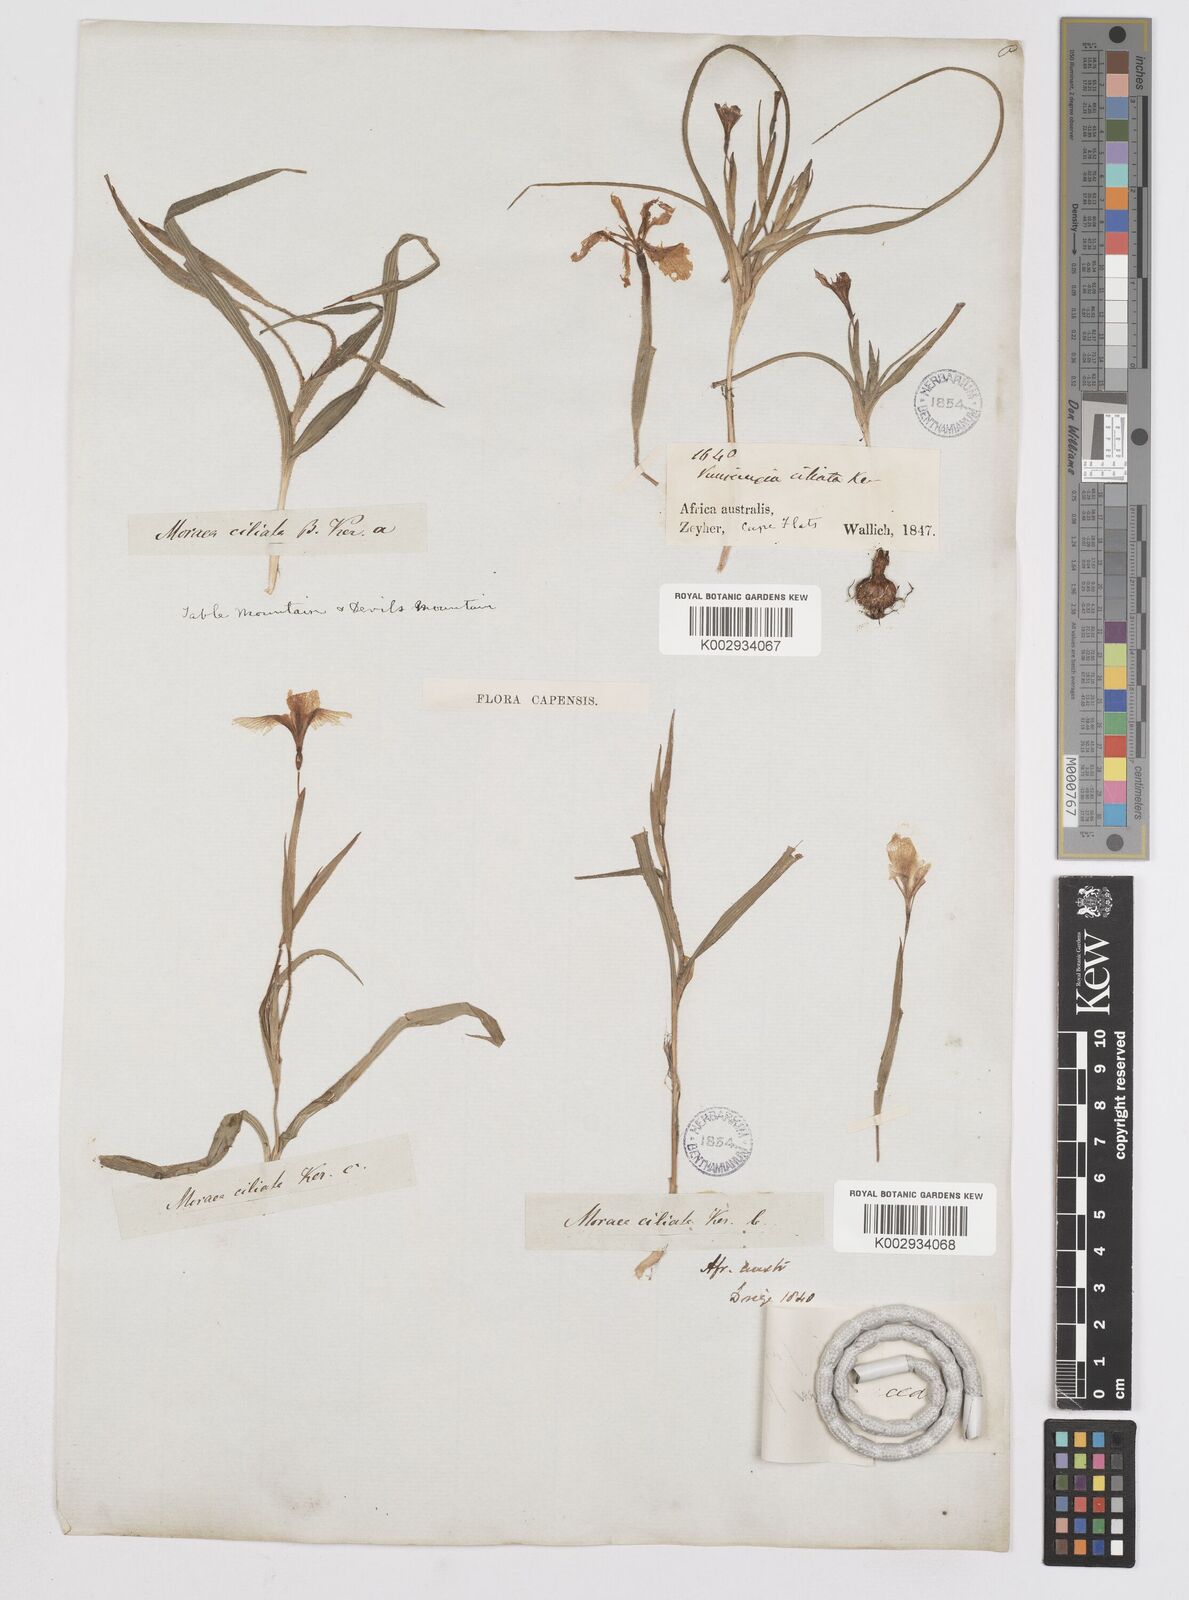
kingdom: Plantae
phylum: Tracheophyta
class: Liliopsida
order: Asparagales
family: Iridaceae
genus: Moraea
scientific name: Moraea papilionacea
